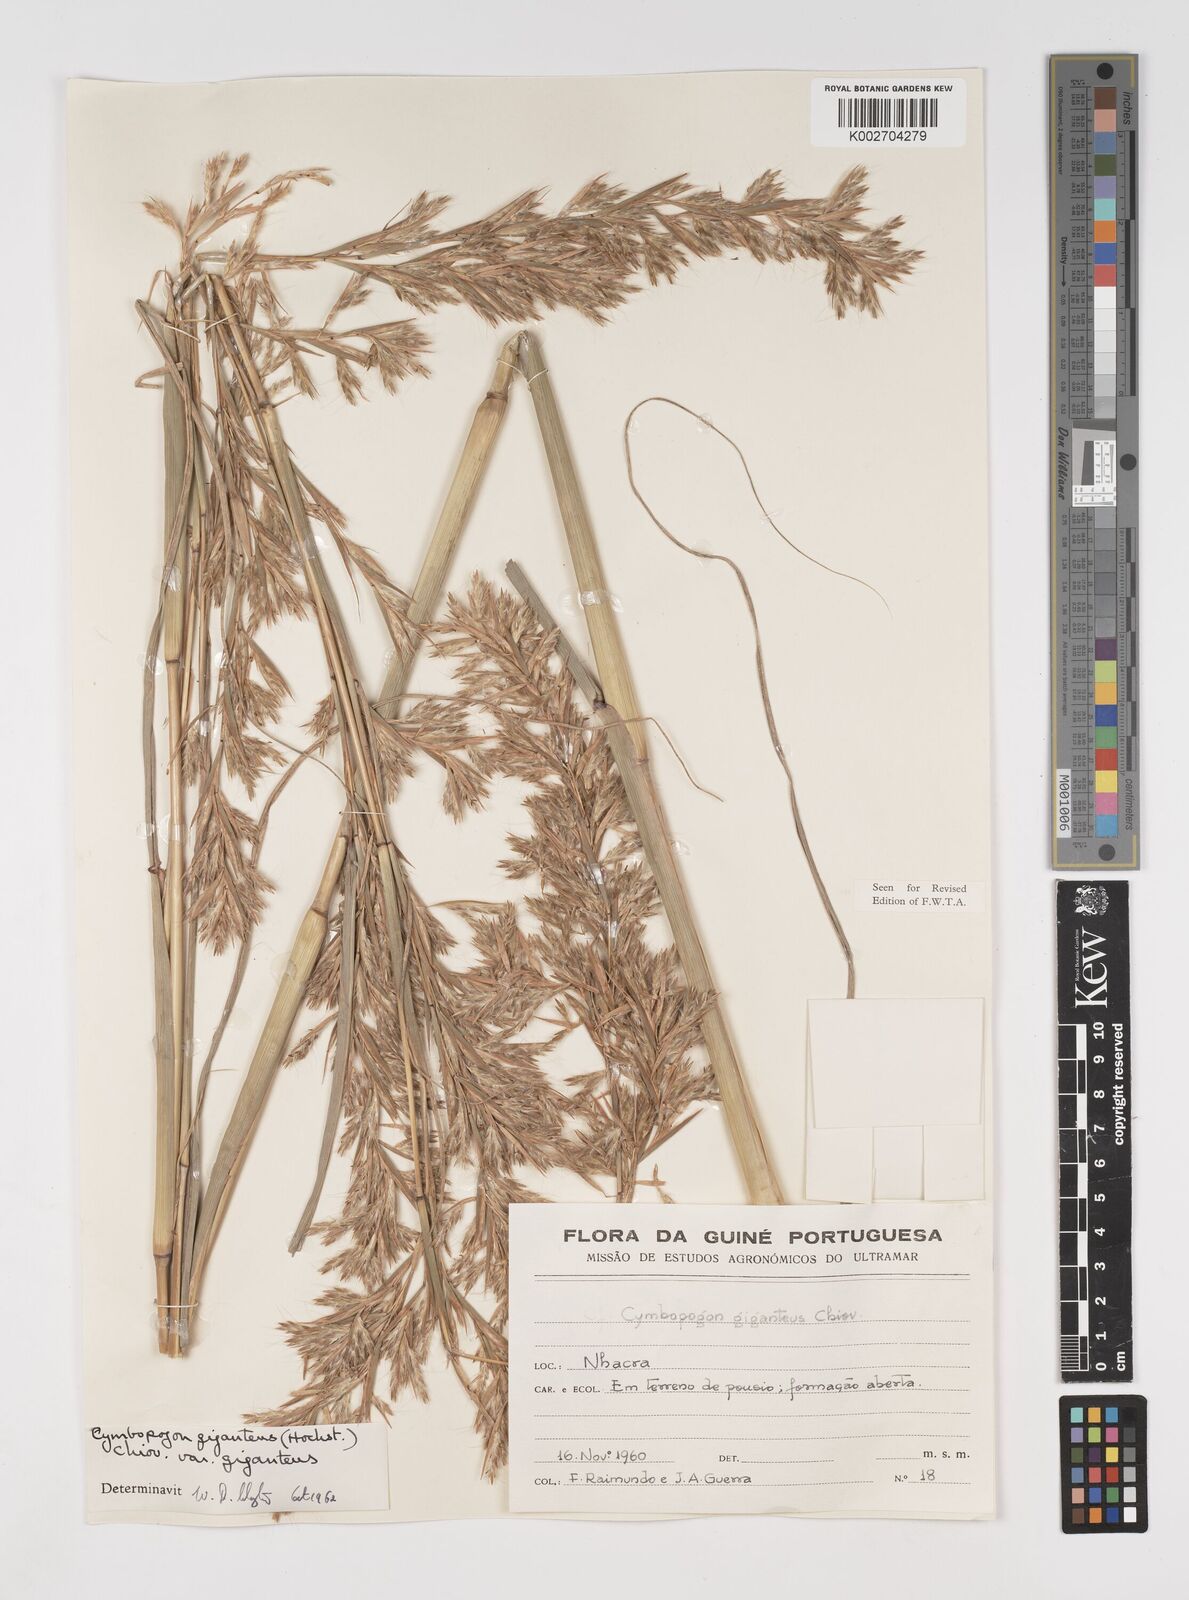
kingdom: Plantae
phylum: Tracheophyta
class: Liliopsida
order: Poales
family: Poaceae
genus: Cymbopogon
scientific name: Cymbopogon giganteus
